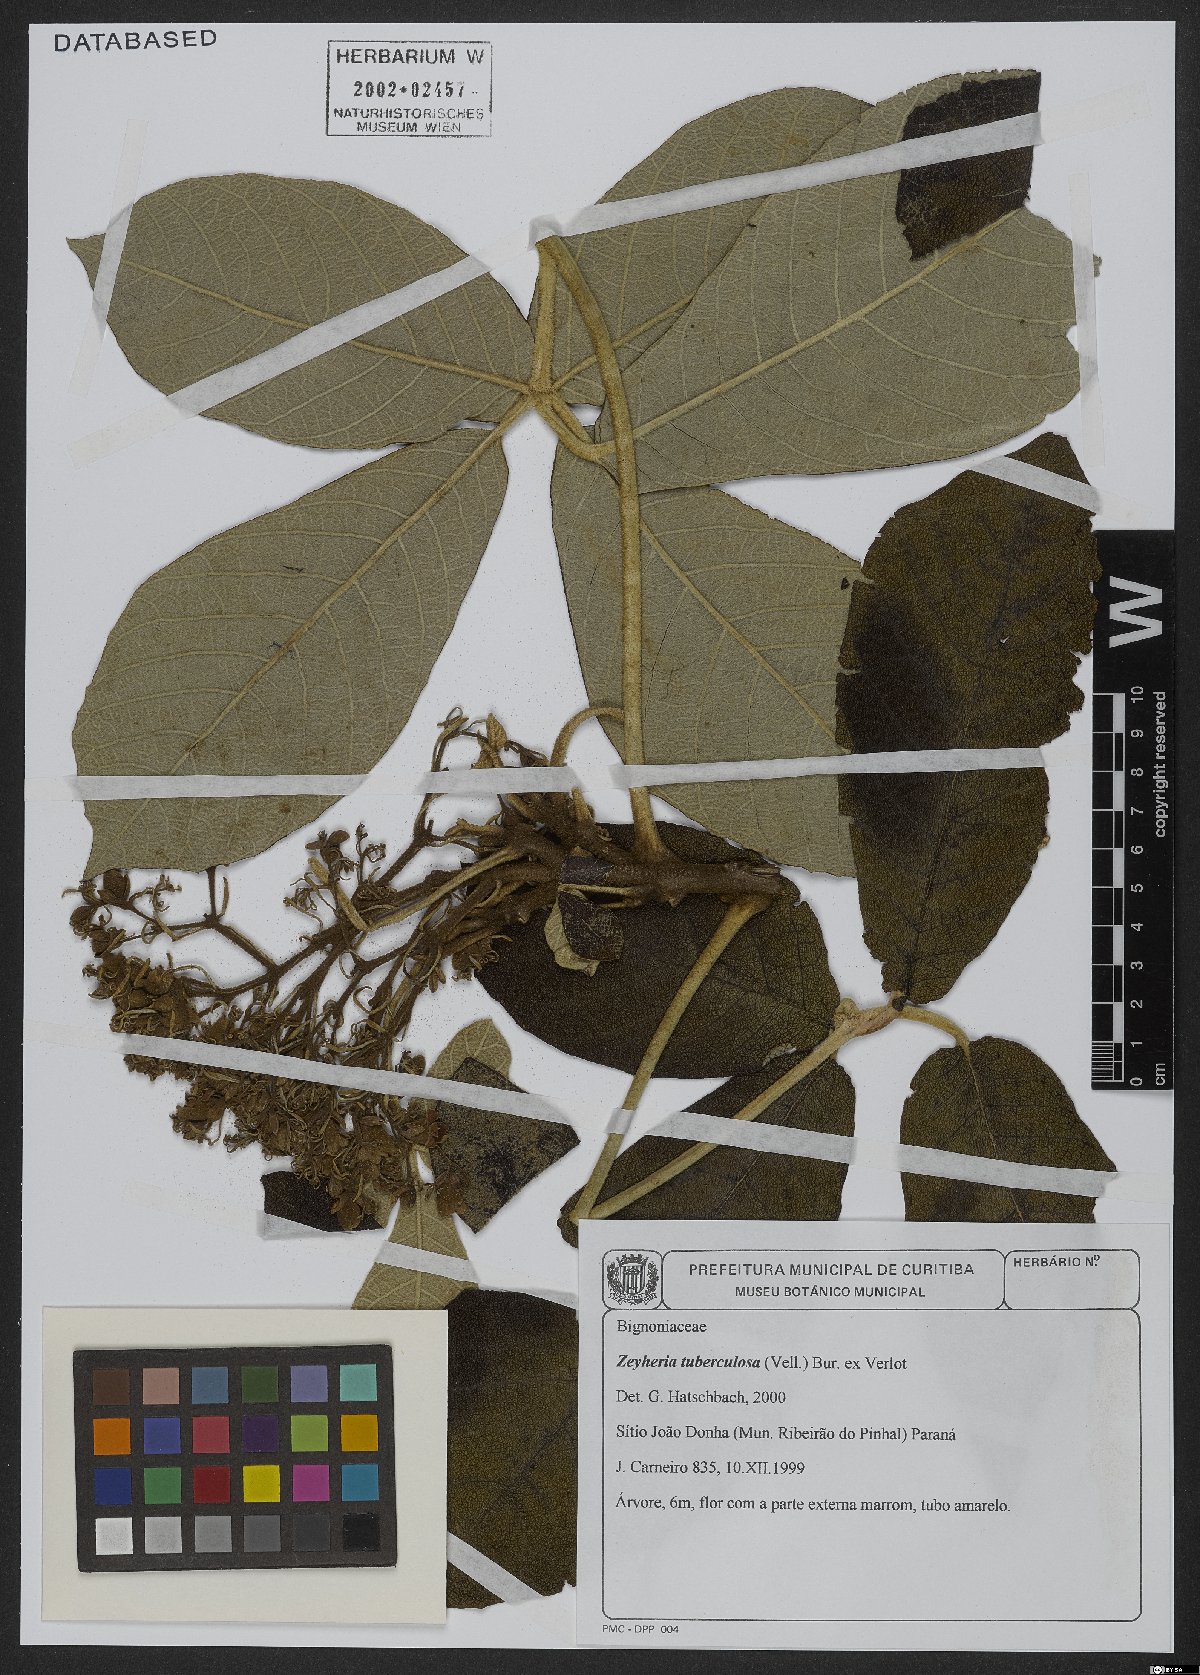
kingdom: Plantae
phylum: Tracheophyta
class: Magnoliopsida
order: Lamiales
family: Bignoniaceae
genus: Zeyheria
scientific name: Zeyheria tuberculosa
